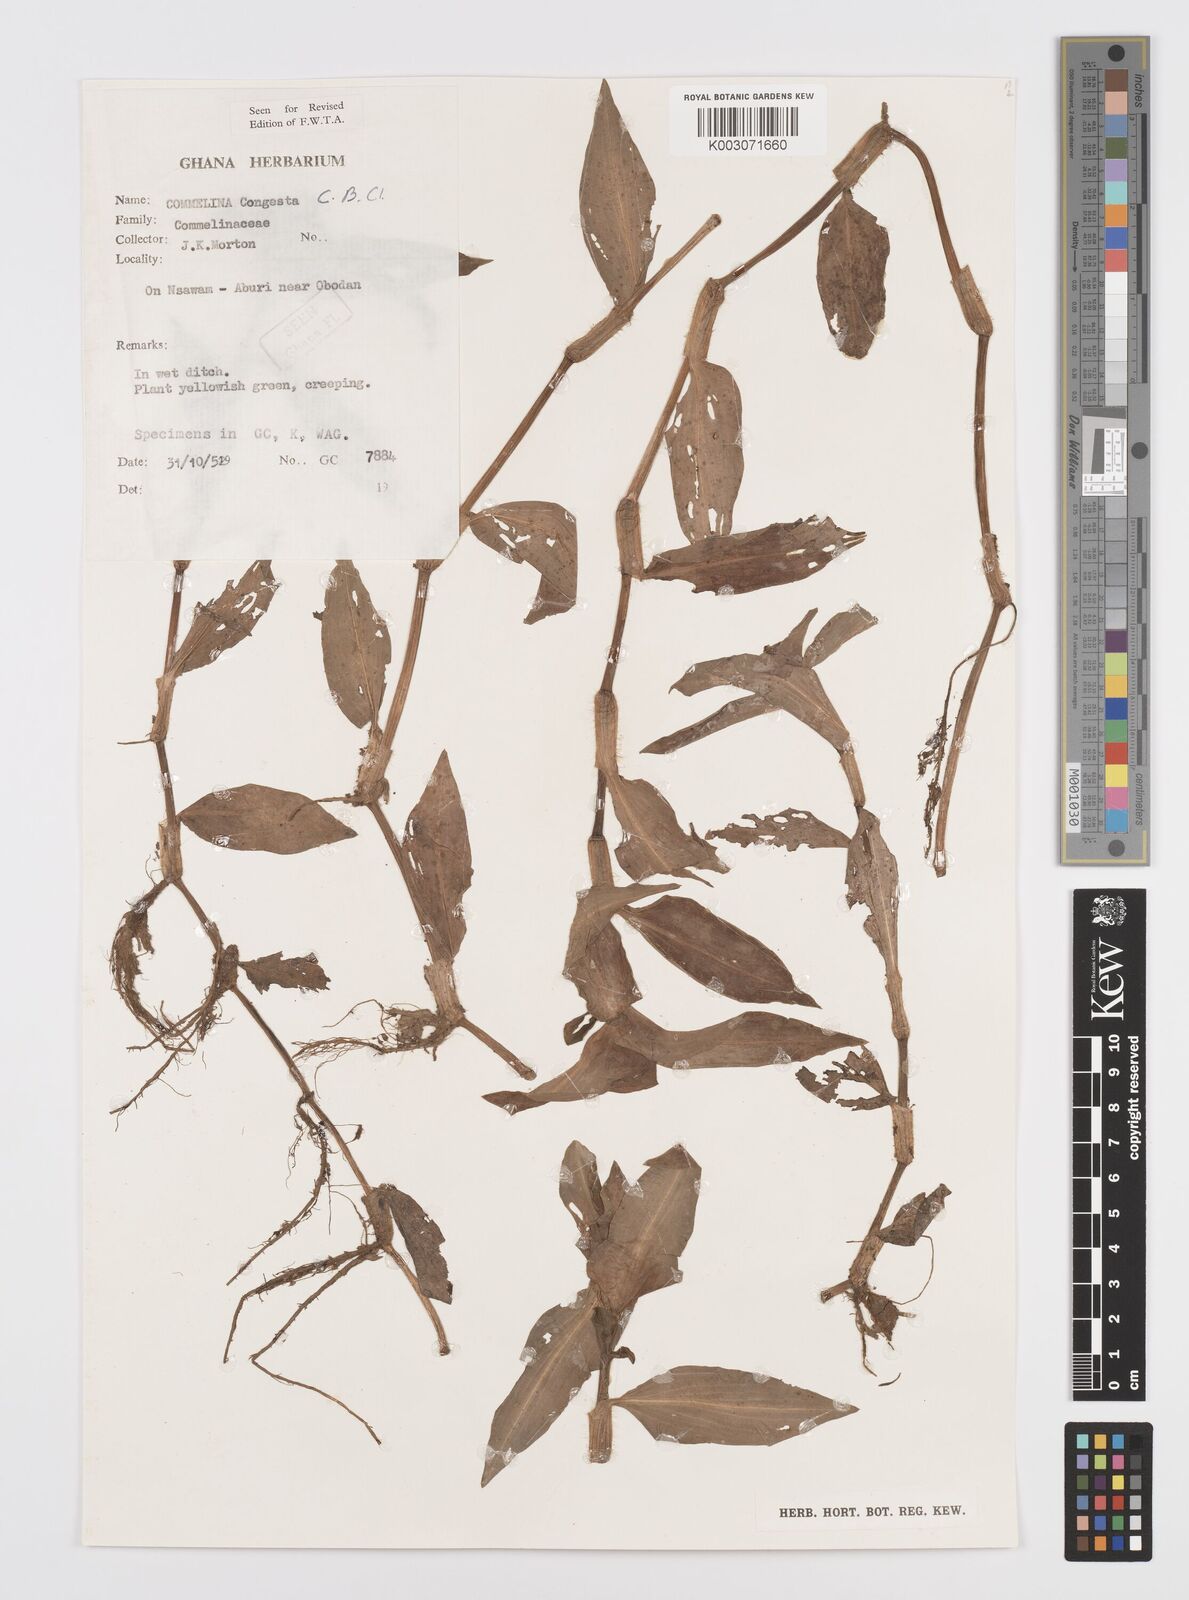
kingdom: Plantae
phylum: Tracheophyta
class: Liliopsida
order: Commelinales
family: Commelinaceae
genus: Commelina
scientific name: Commelina congesta
